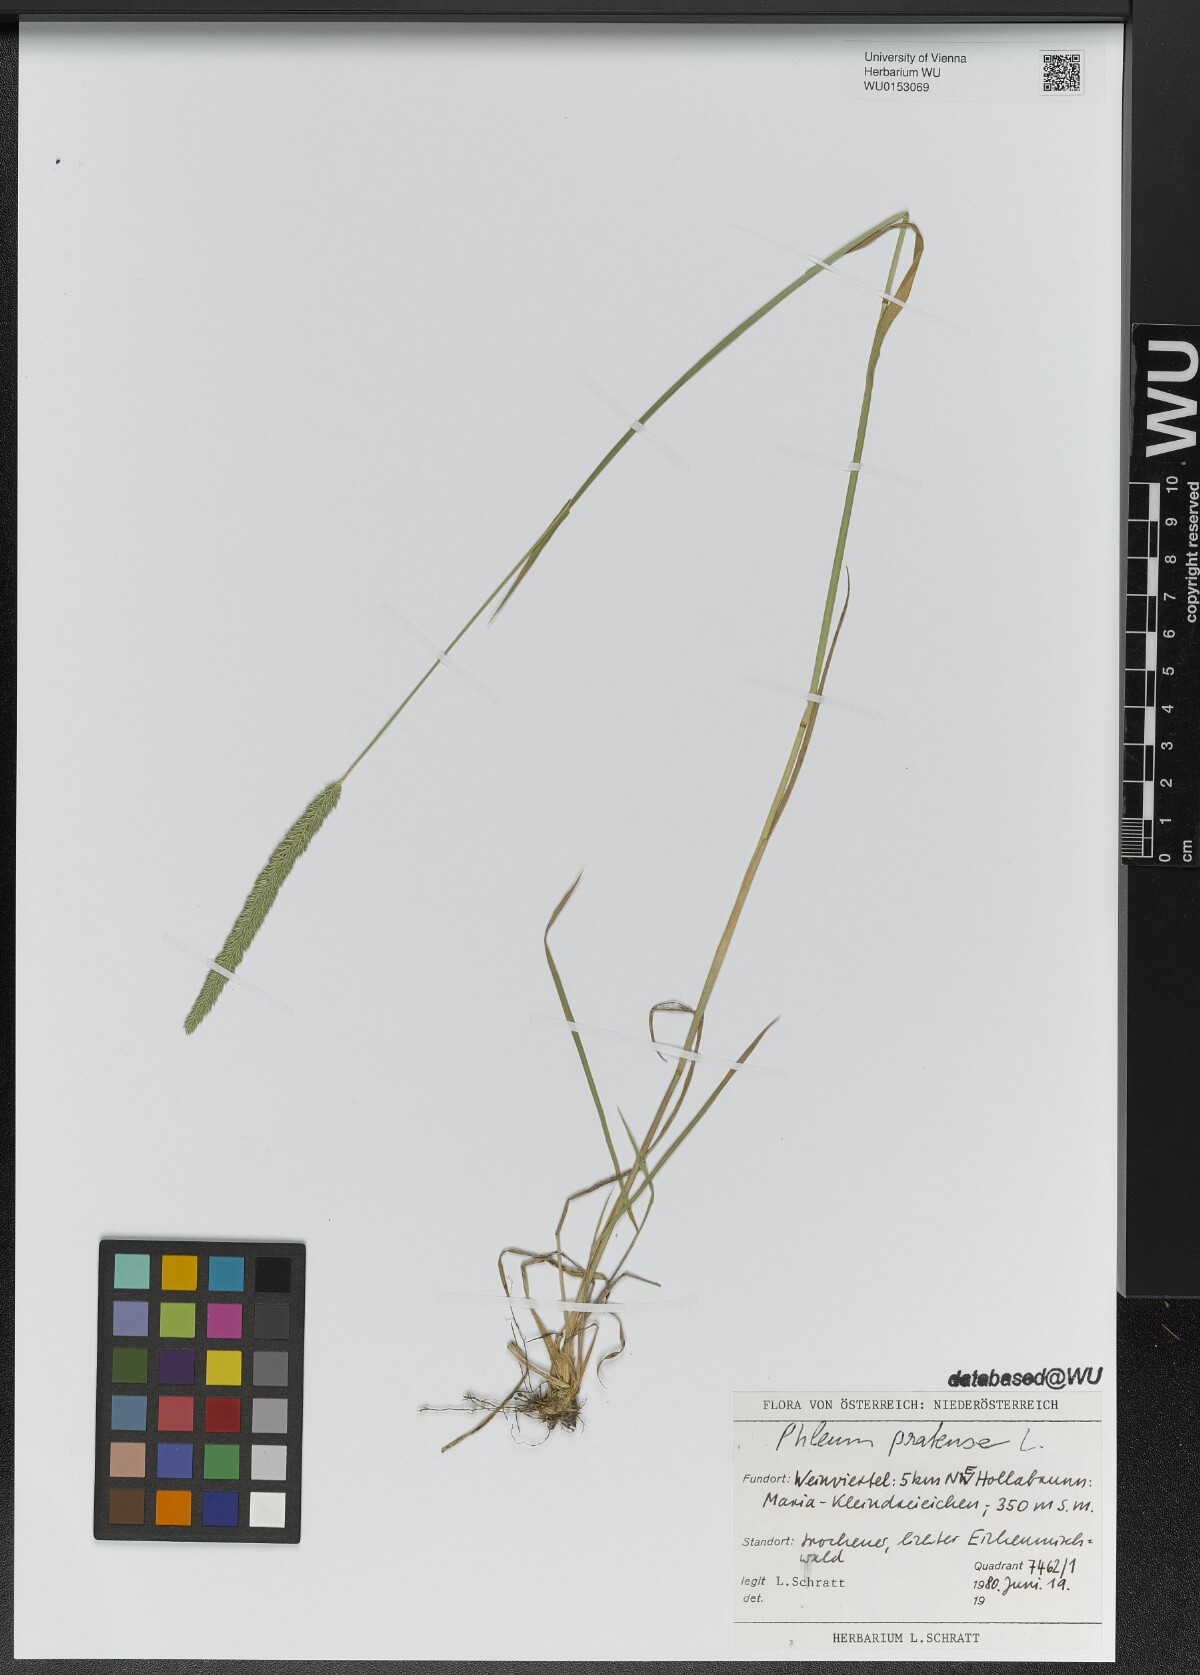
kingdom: Plantae
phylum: Tracheophyta
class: Liliopsida
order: Poales
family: Poaceae
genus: Phleum
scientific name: Phleum pratense
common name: Timothy grass
